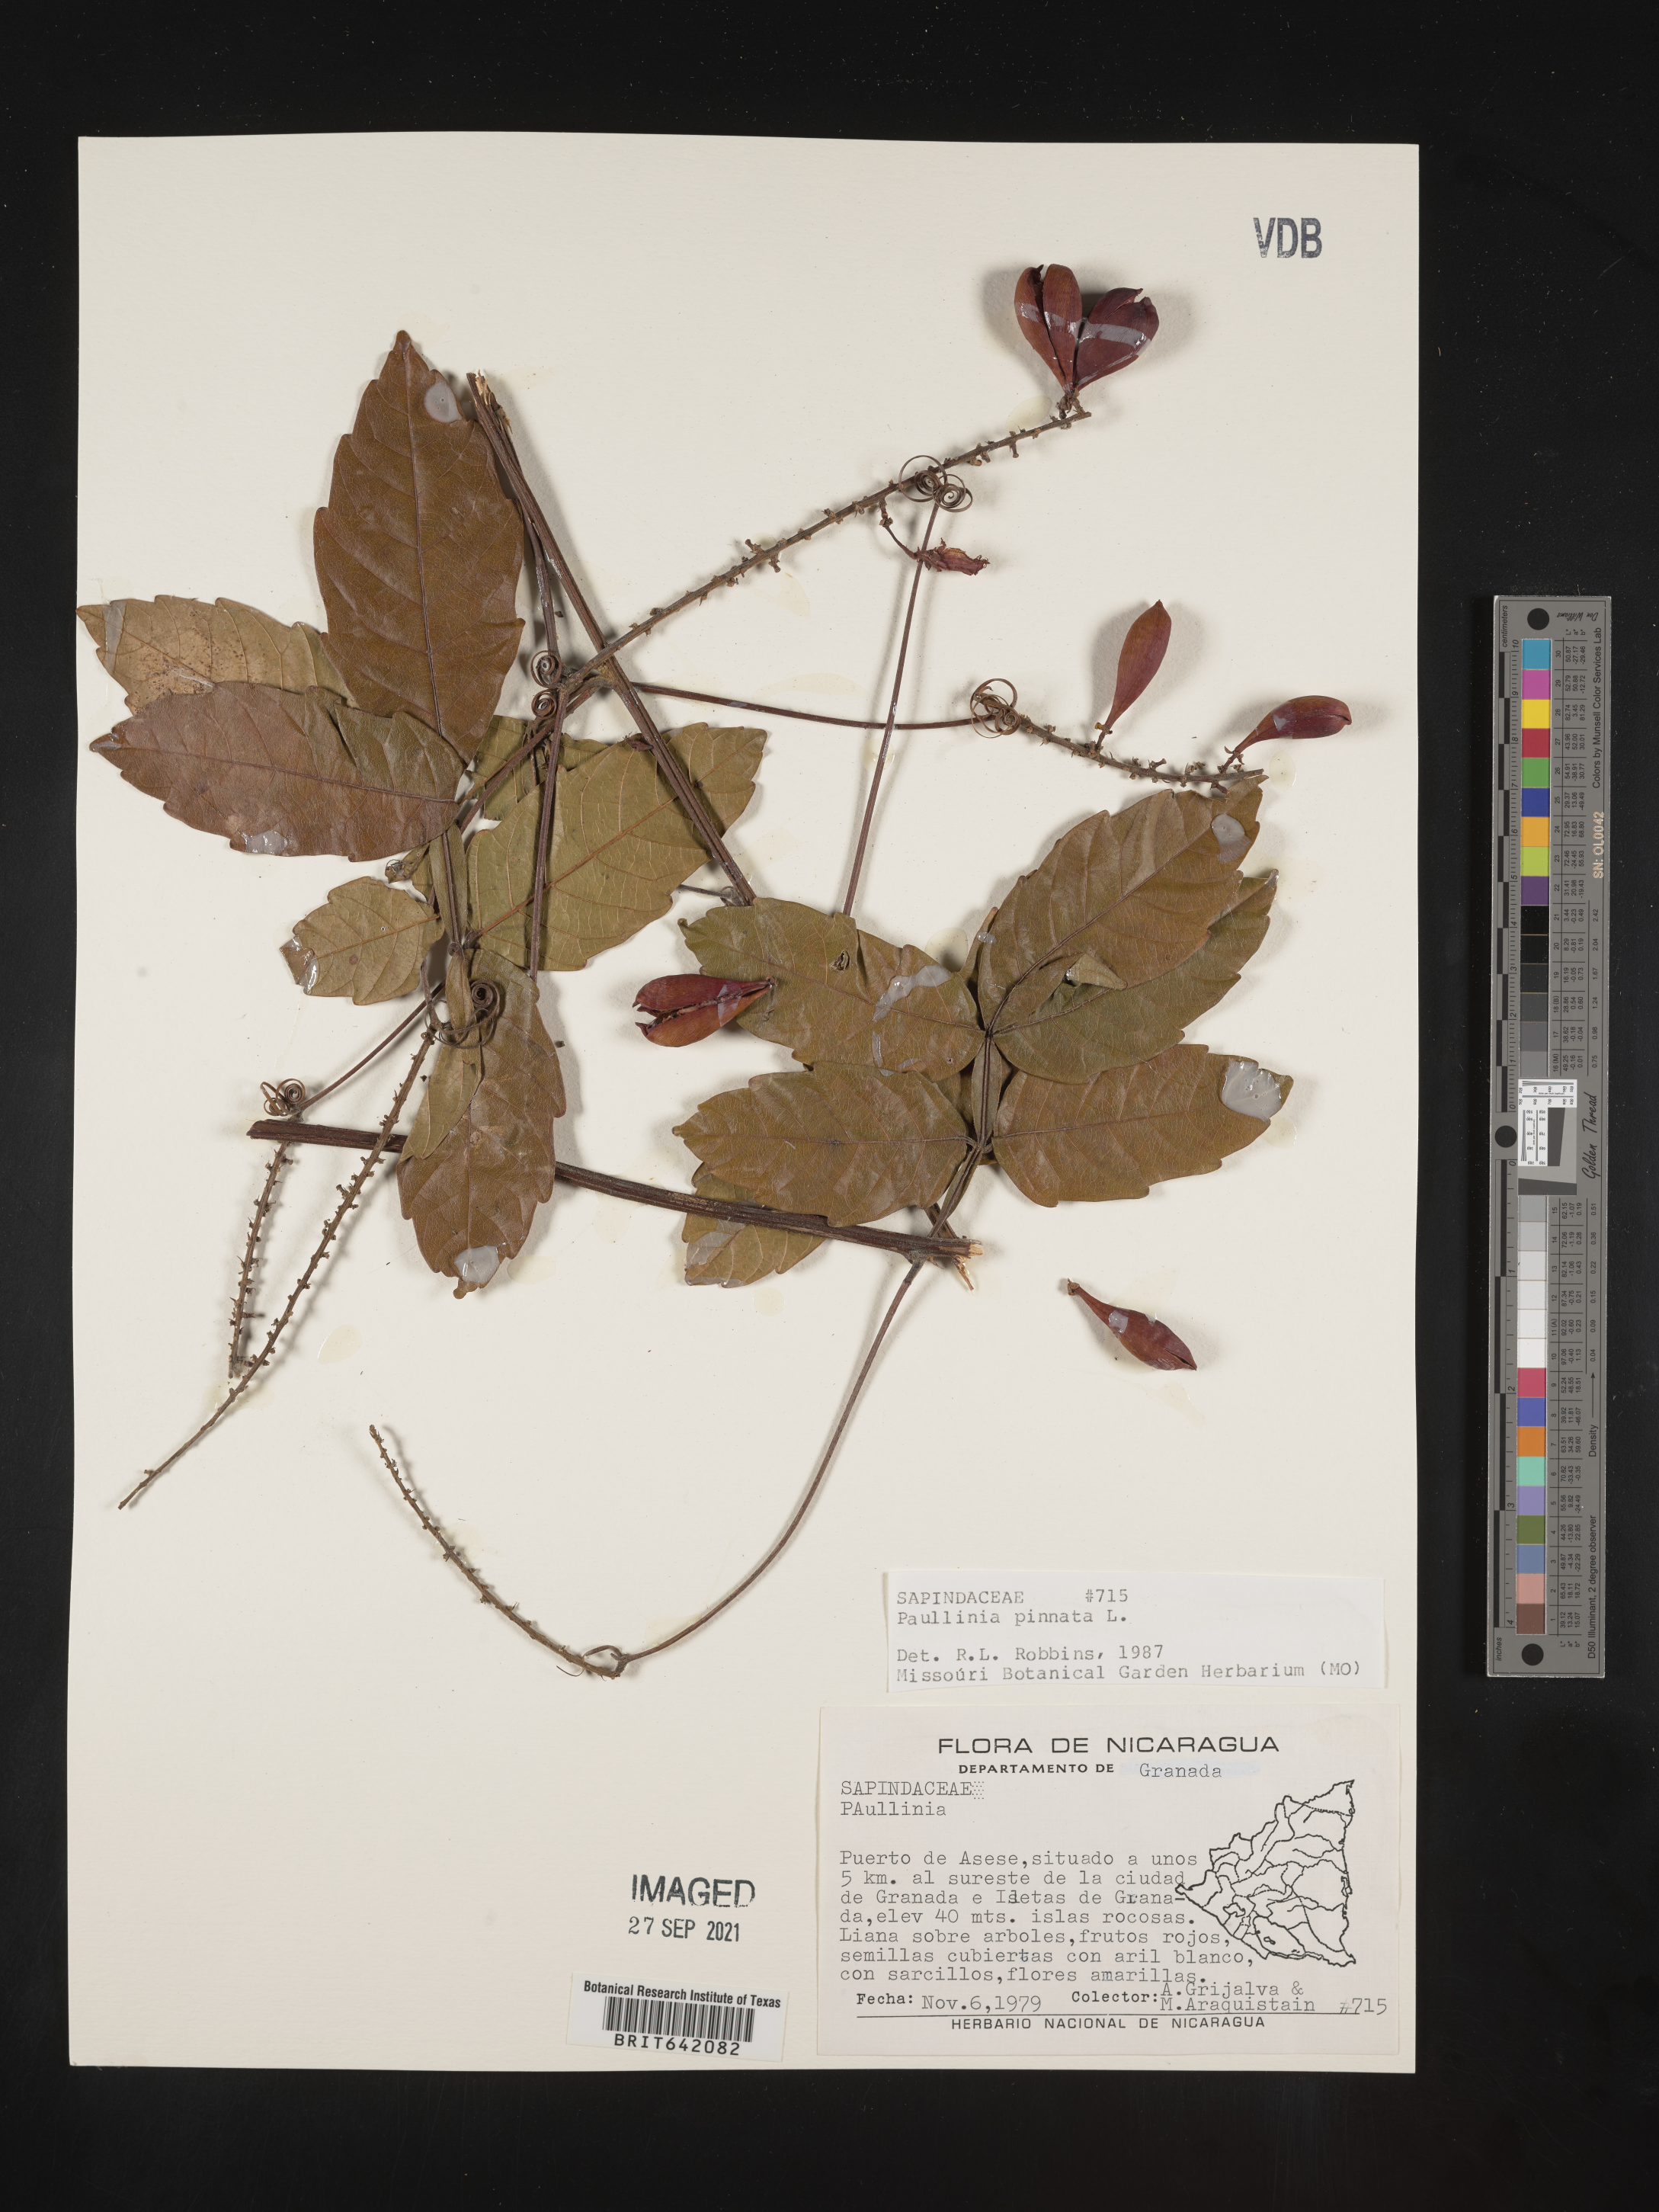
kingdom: Plantae
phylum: Tracheophyta
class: Magnoliopsida
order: Sapindales
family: Sapindaceae
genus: Paullinia
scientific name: Paullinia
